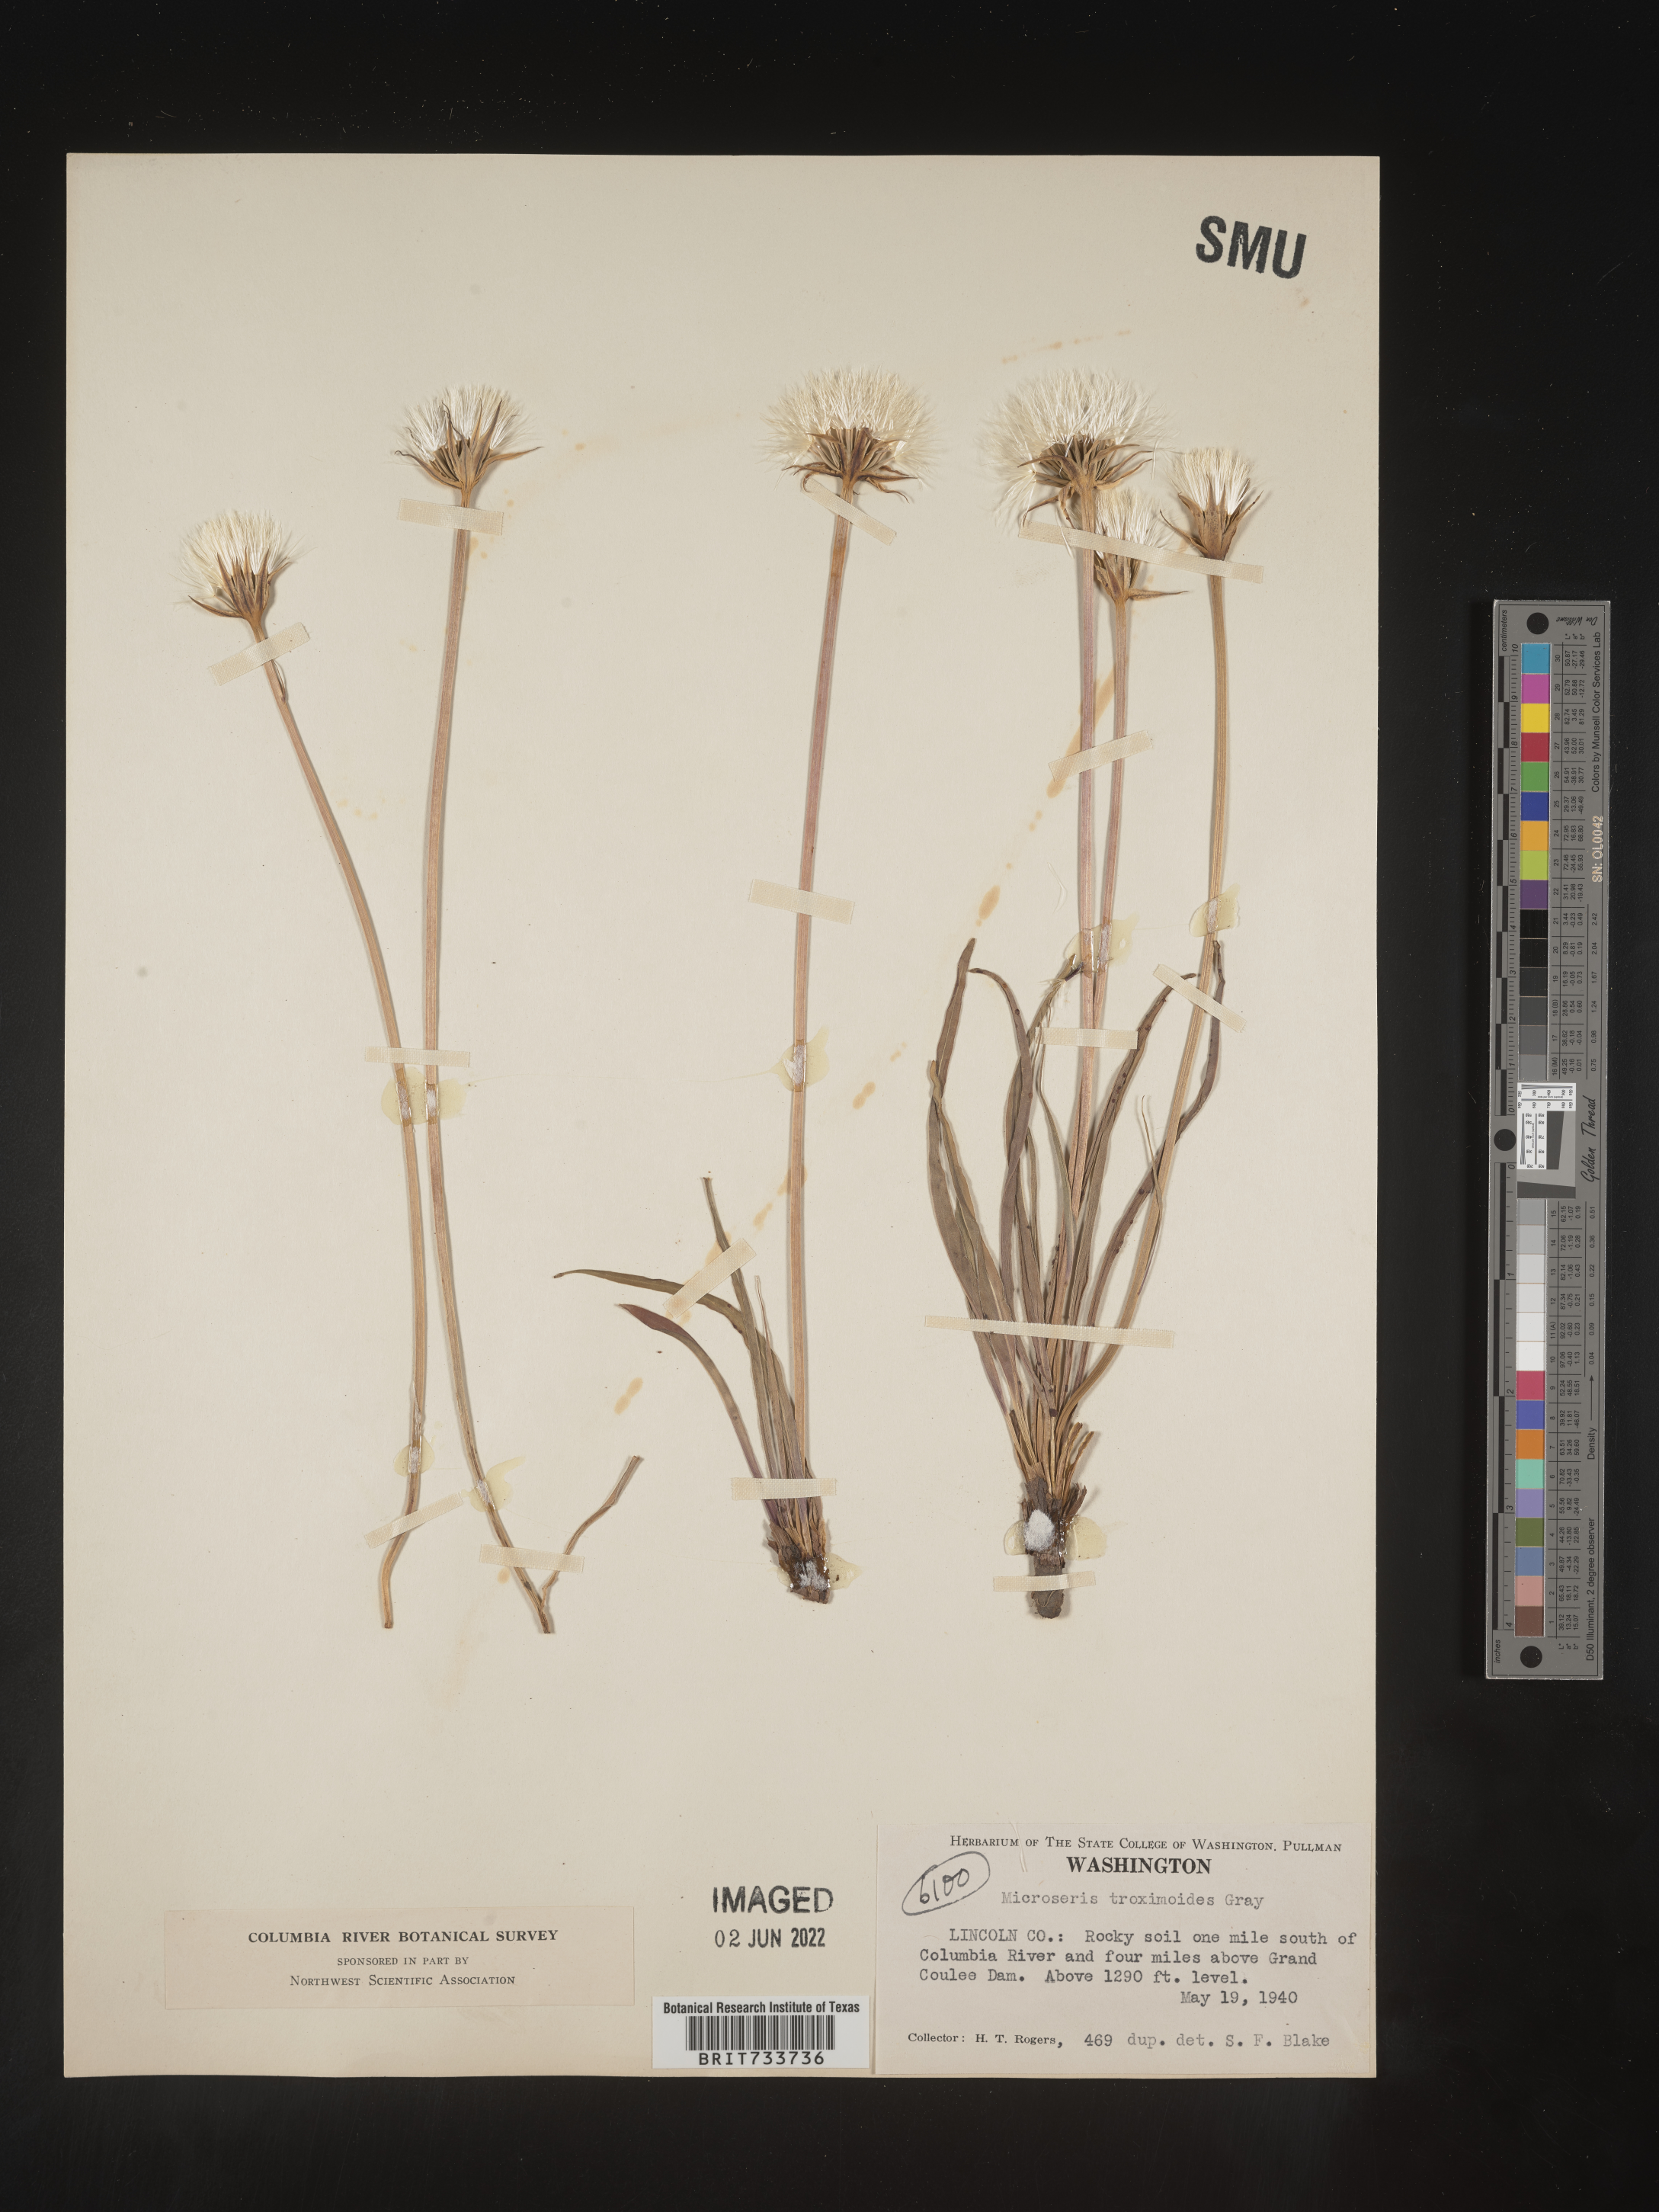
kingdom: Plantae
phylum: Tracheophyta
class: Magnoliopsida
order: Asterales
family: Asteraceae
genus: Microseris
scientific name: Microseris
